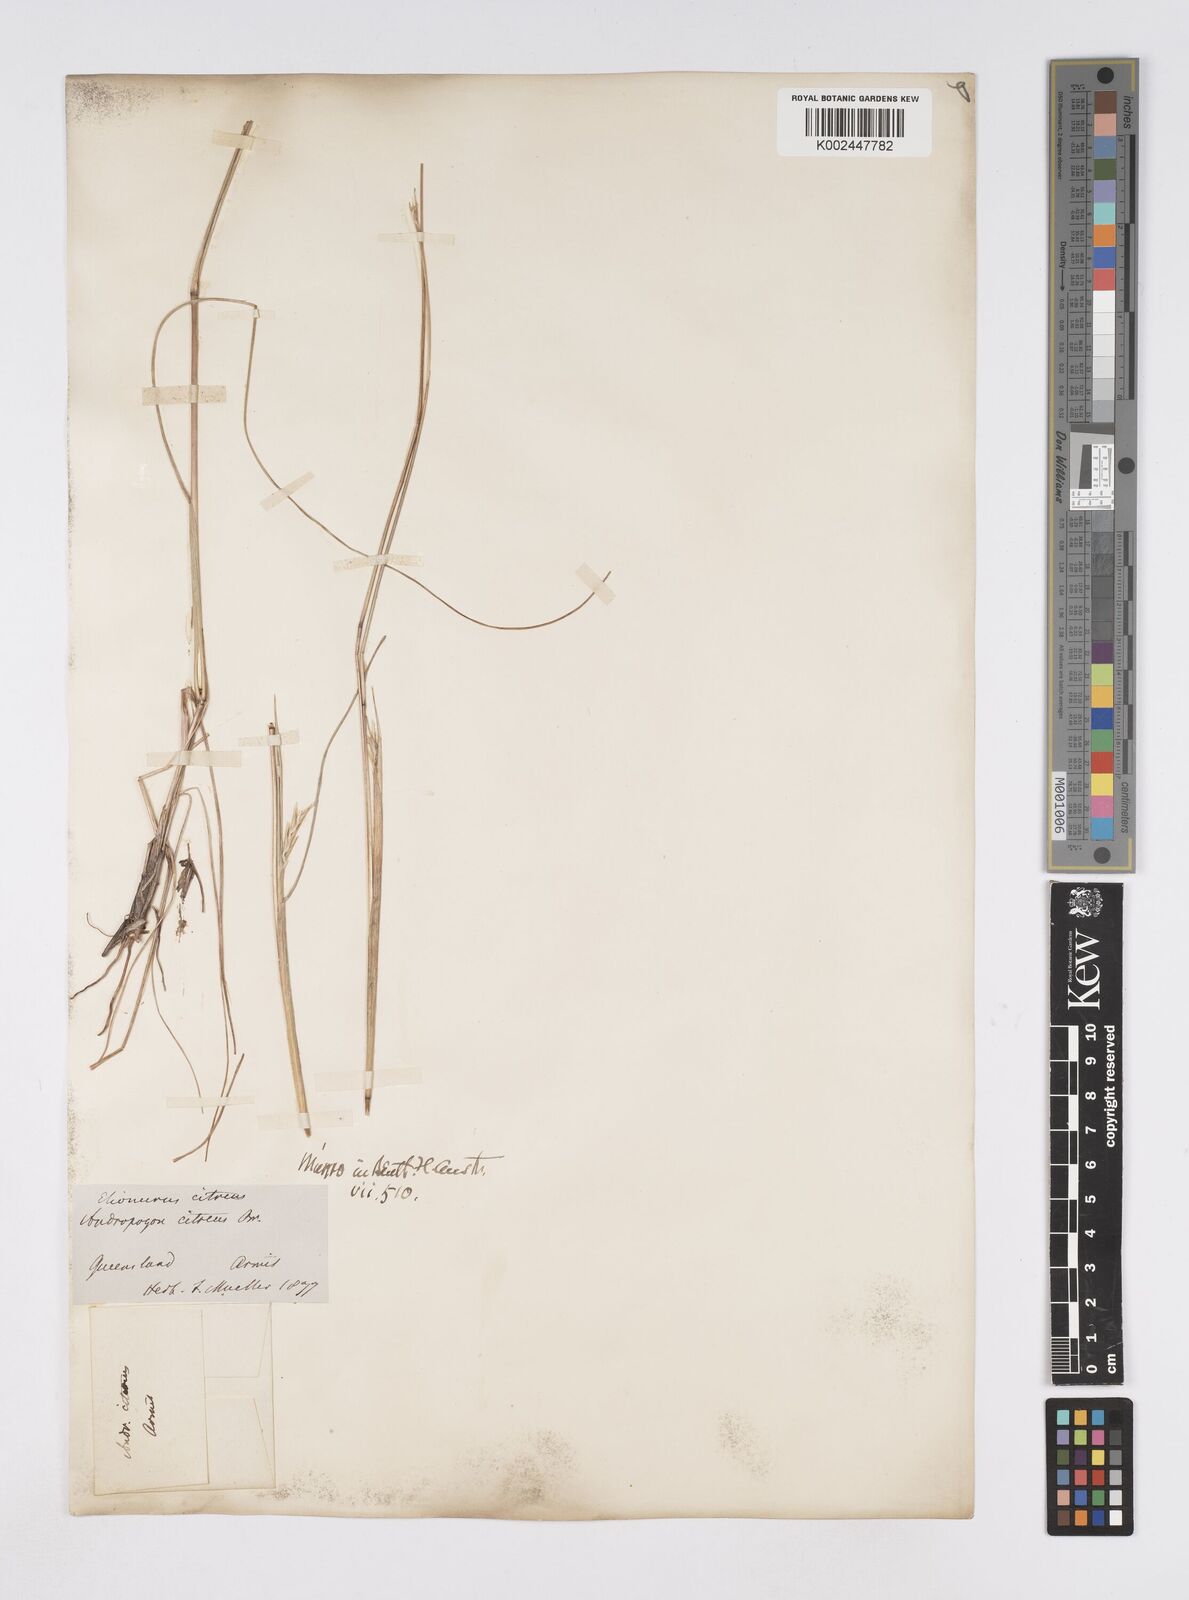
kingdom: Plantae
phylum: Tracheophyta
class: Liliopsida
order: Poales
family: Poaceae
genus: Elionurus
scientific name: Elionurus citreus
